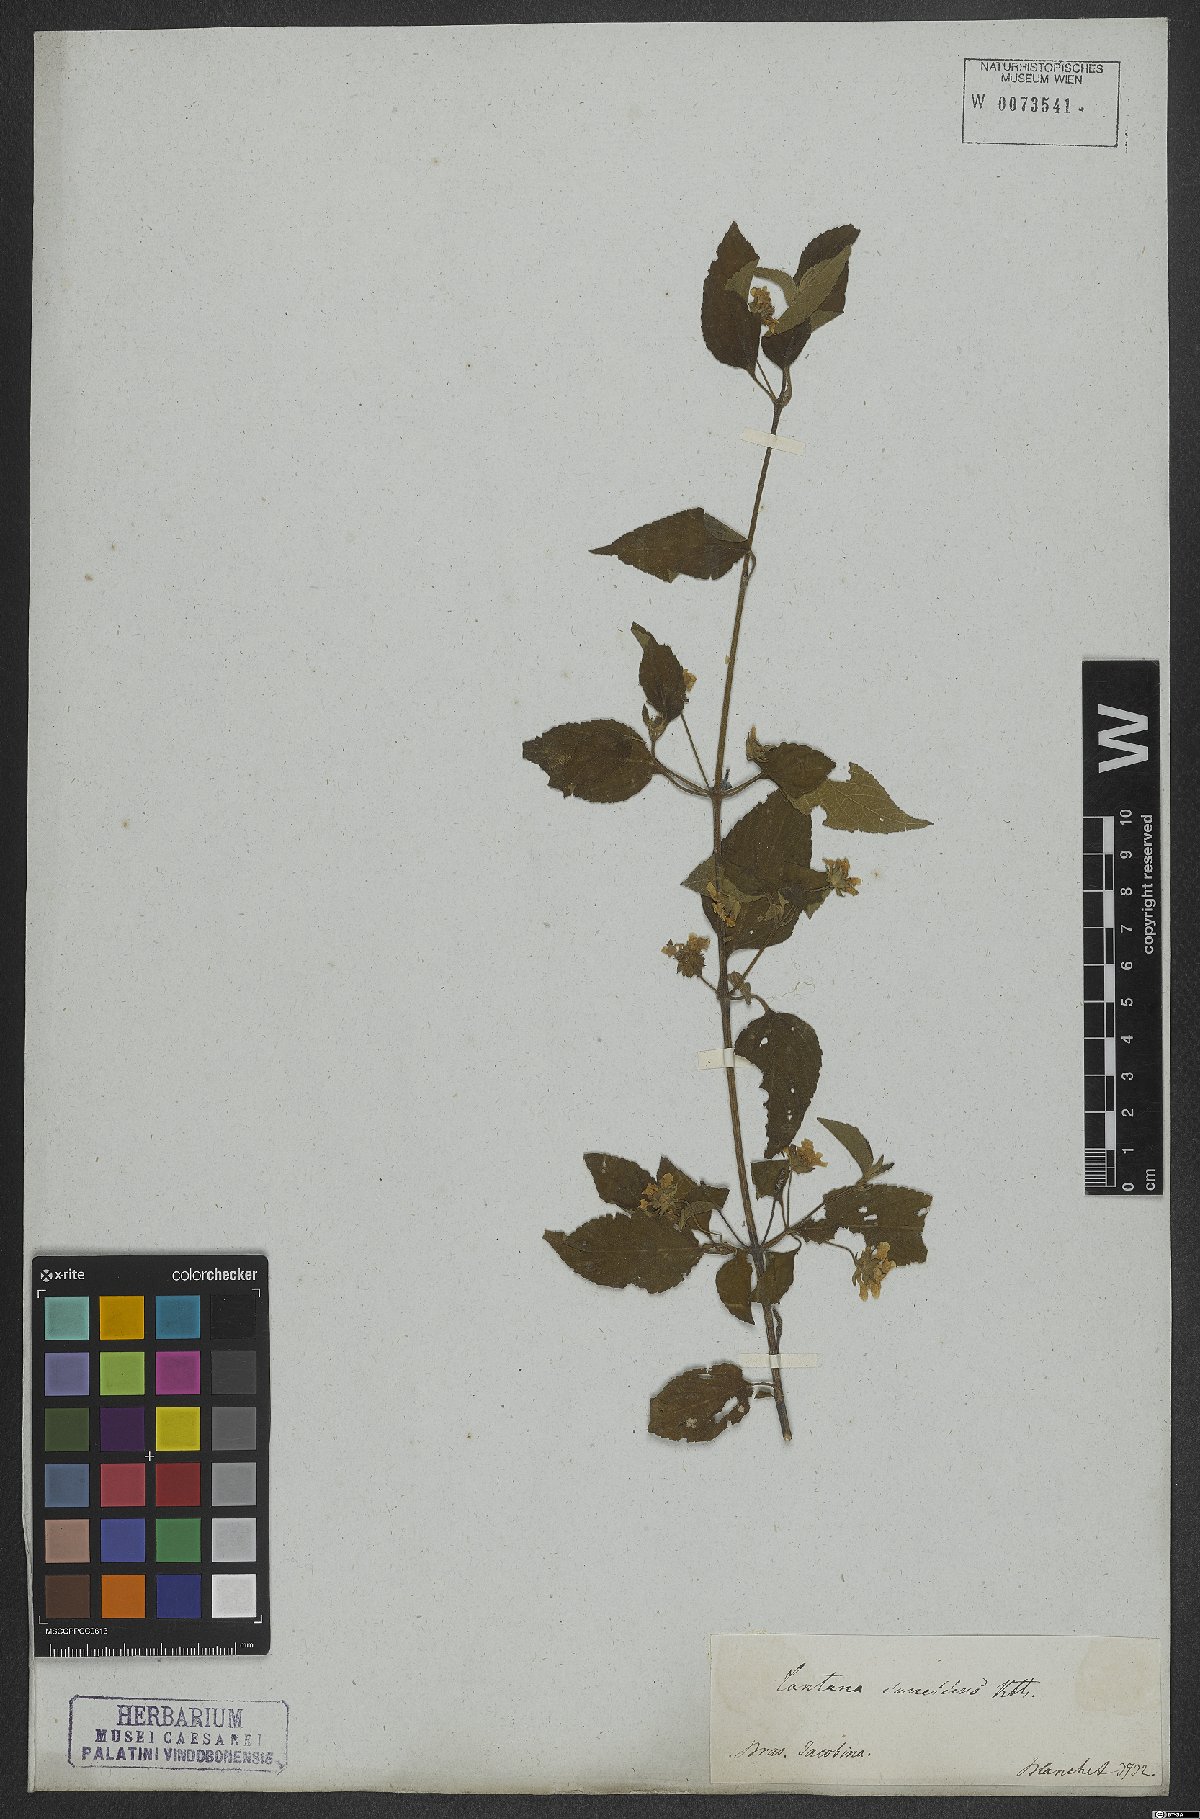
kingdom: Plantae
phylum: Tracheophyta
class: Magnoliopsida
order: Lamiales
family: Verbenaceae
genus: Lantana
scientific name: Lantana canescens
